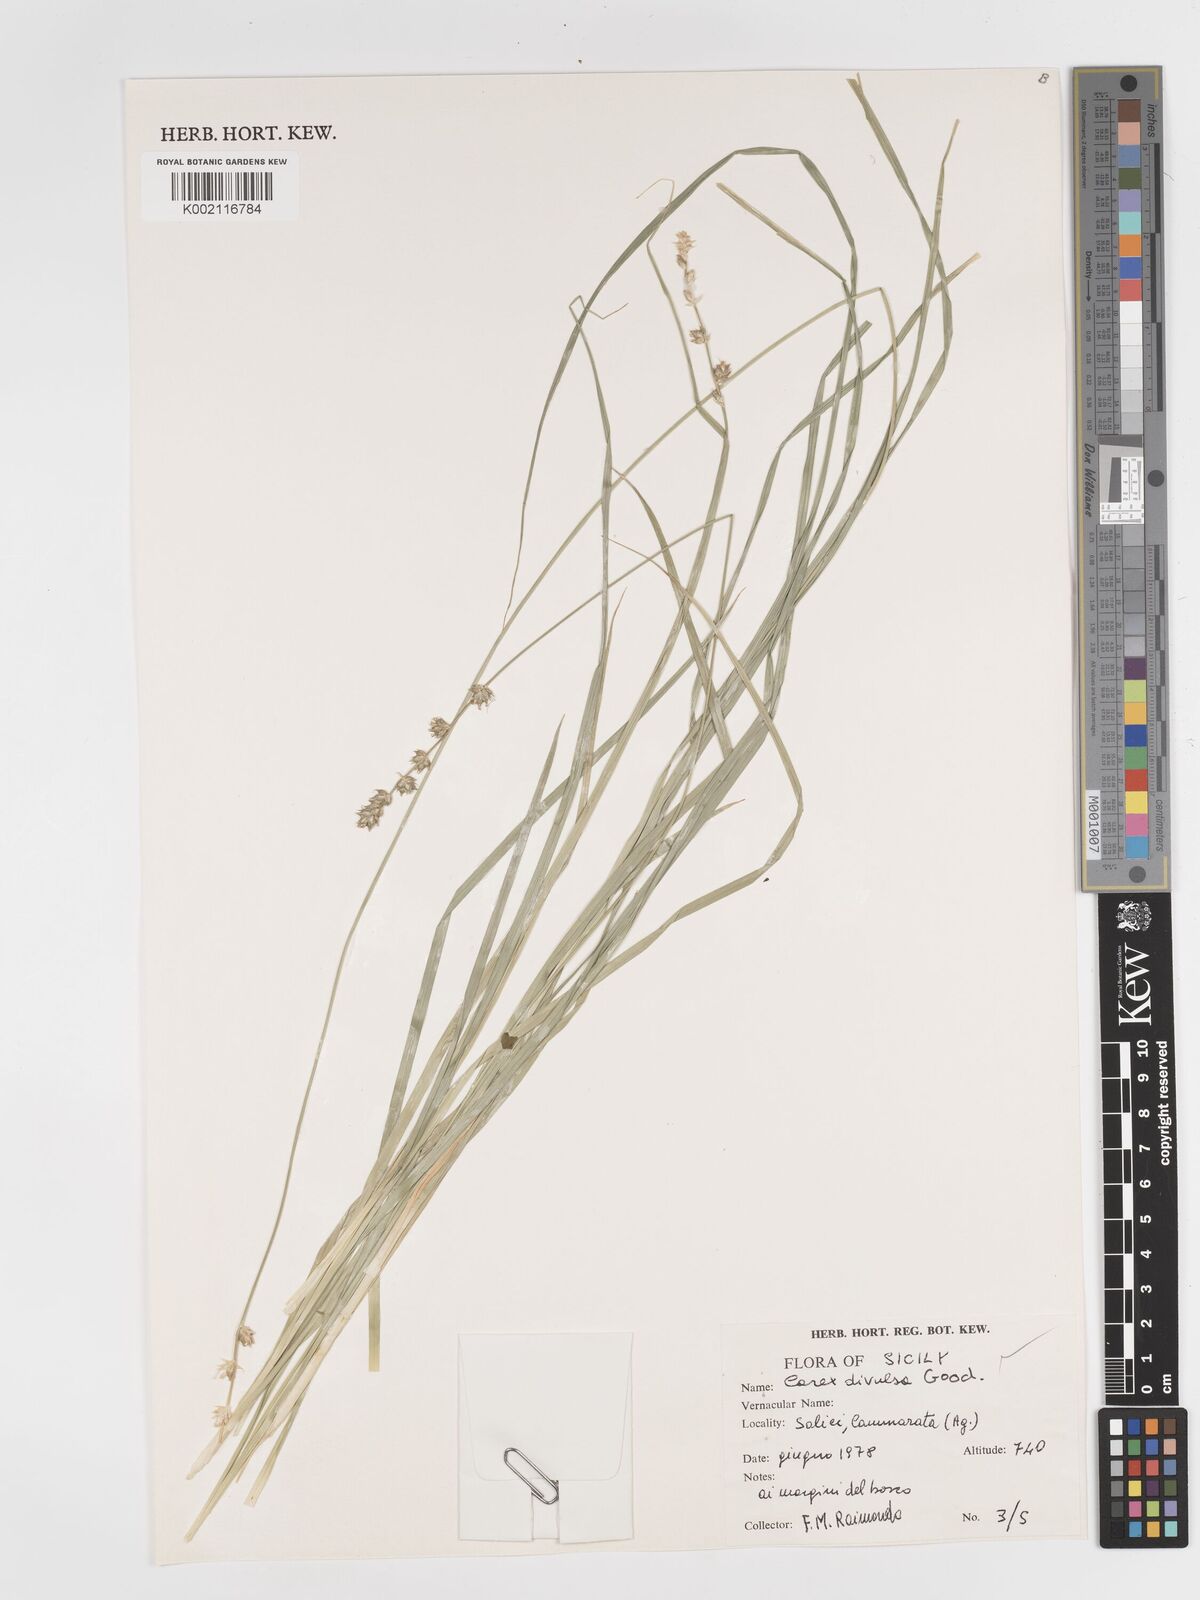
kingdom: Plantae
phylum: Tracheophyta
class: Liliopsida
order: Poales
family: Cyperaceae
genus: Carex
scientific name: Carex divulsa
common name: Grassland sedge
